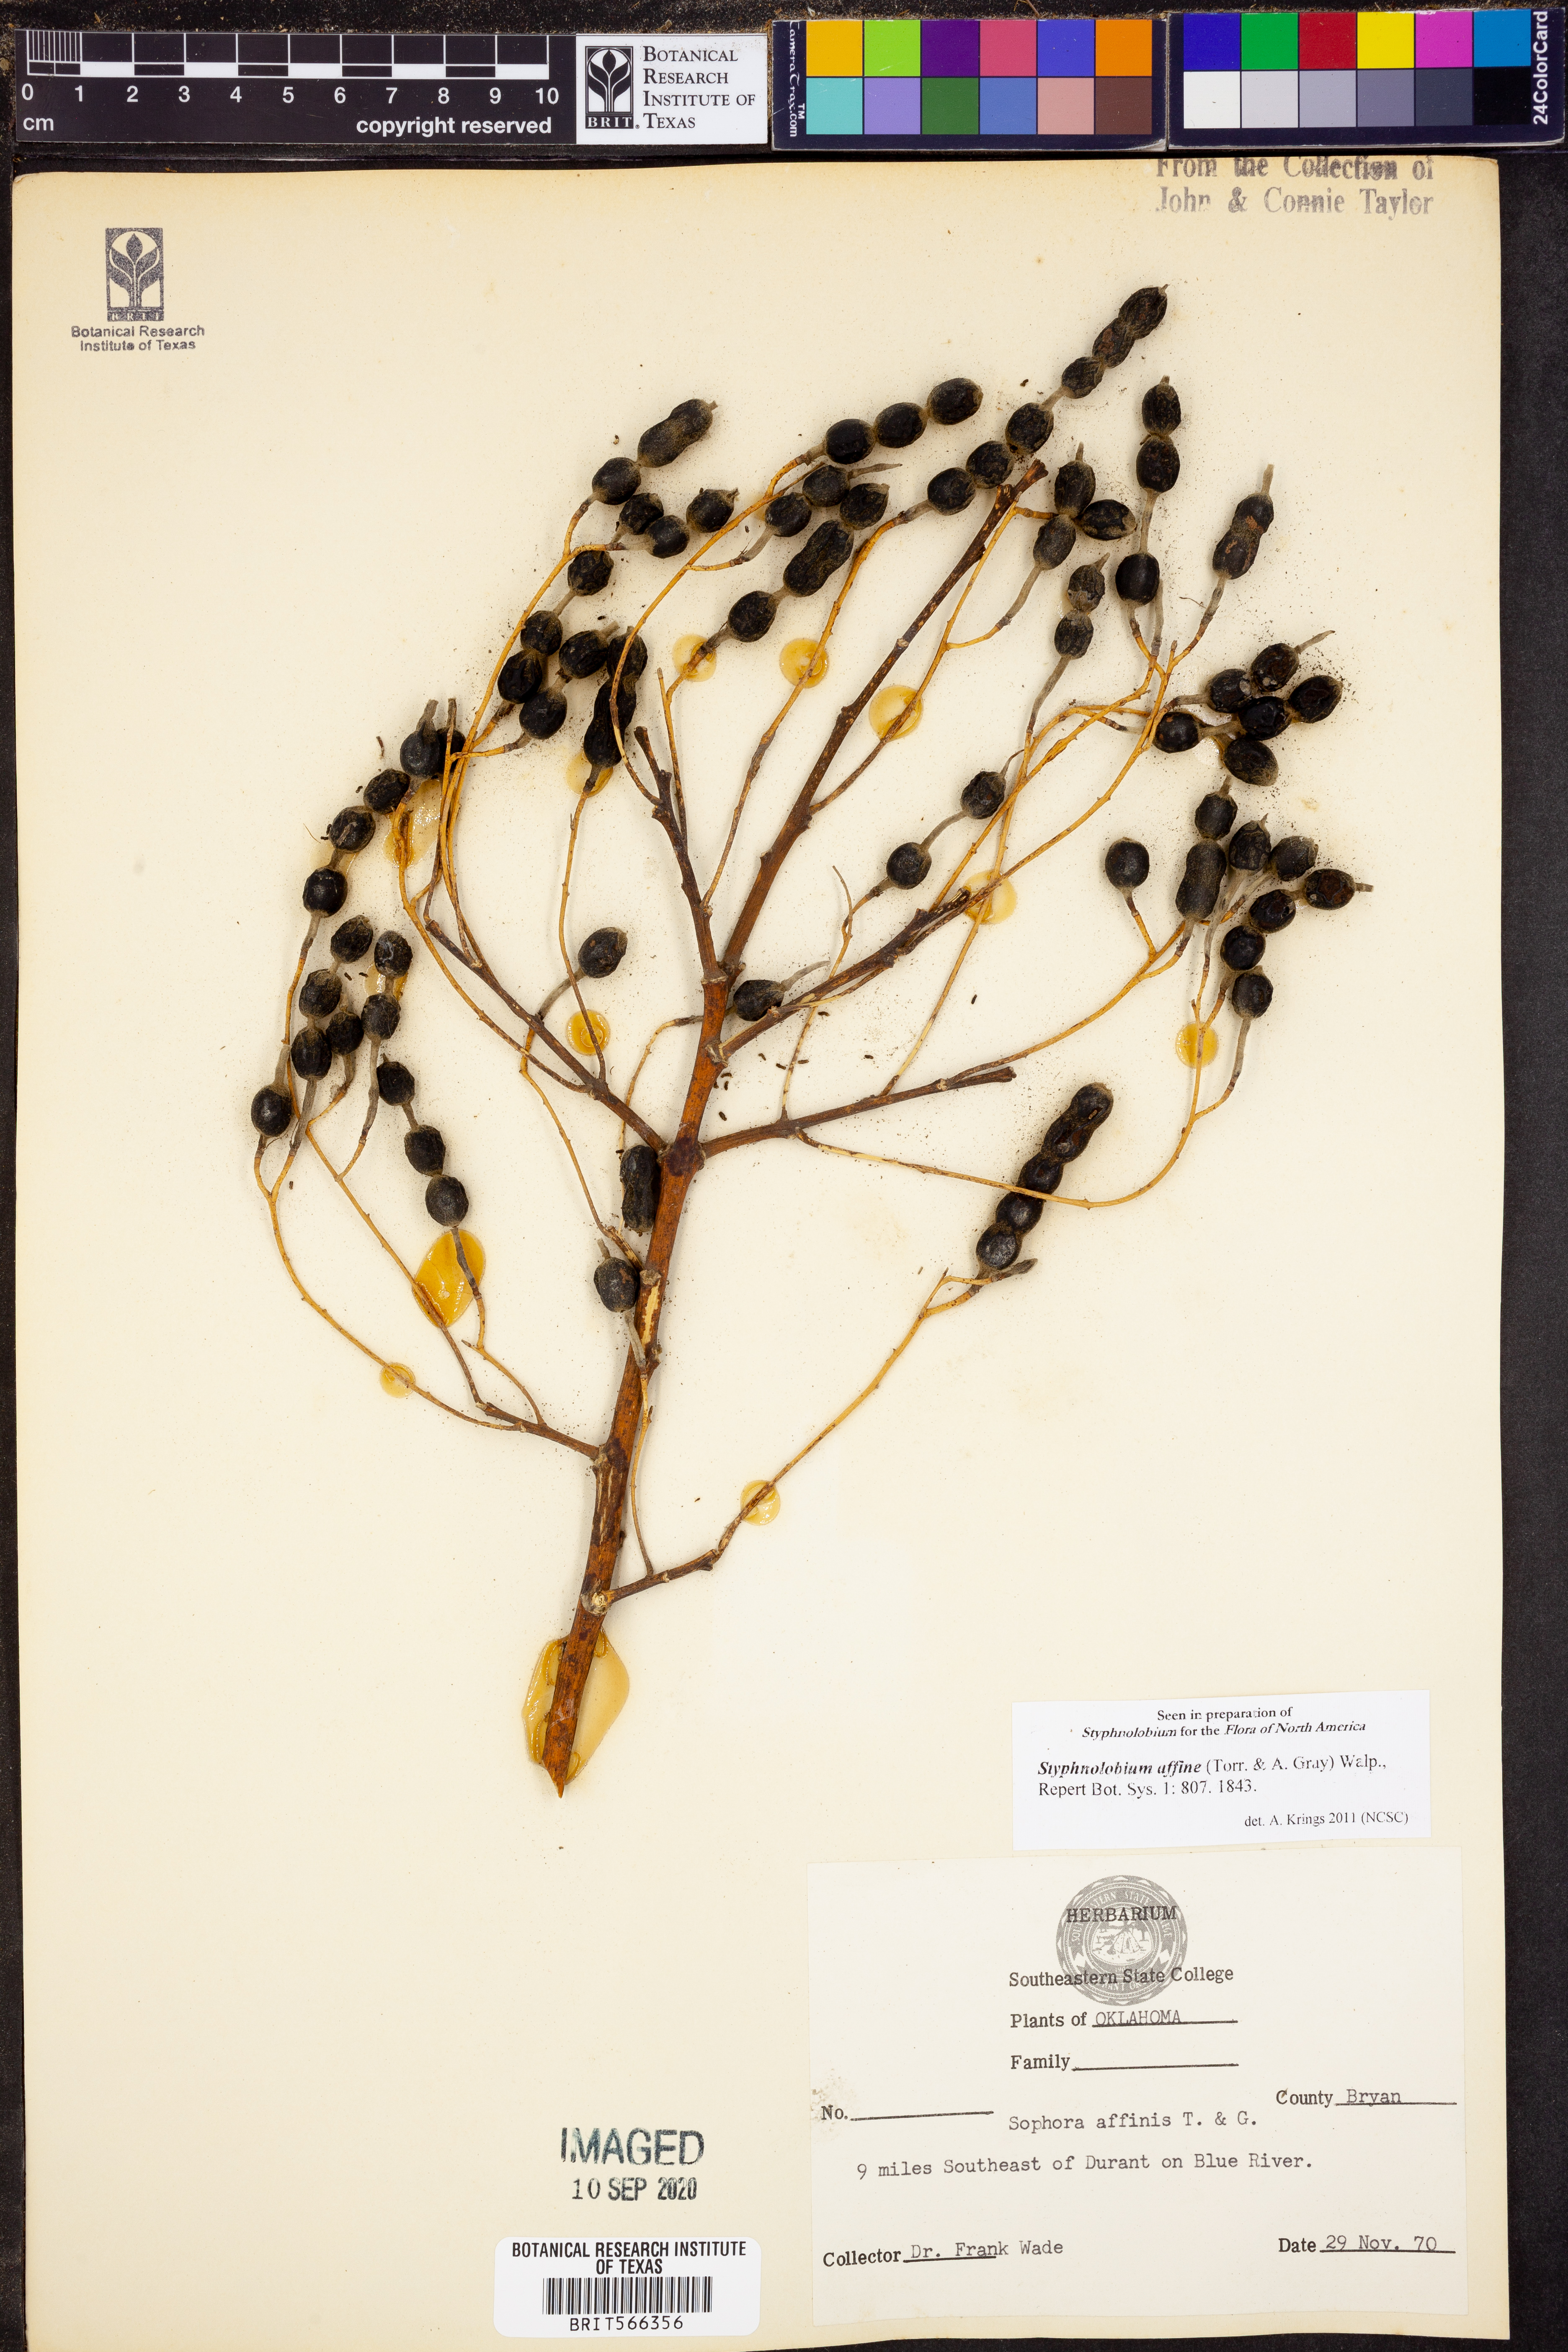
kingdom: Plantae
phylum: Tracheophyta
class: Magnoliopsida
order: Fabales
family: Fabaceae
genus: Styphnolobium
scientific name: Styphnolobium affine
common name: Texas sophora
